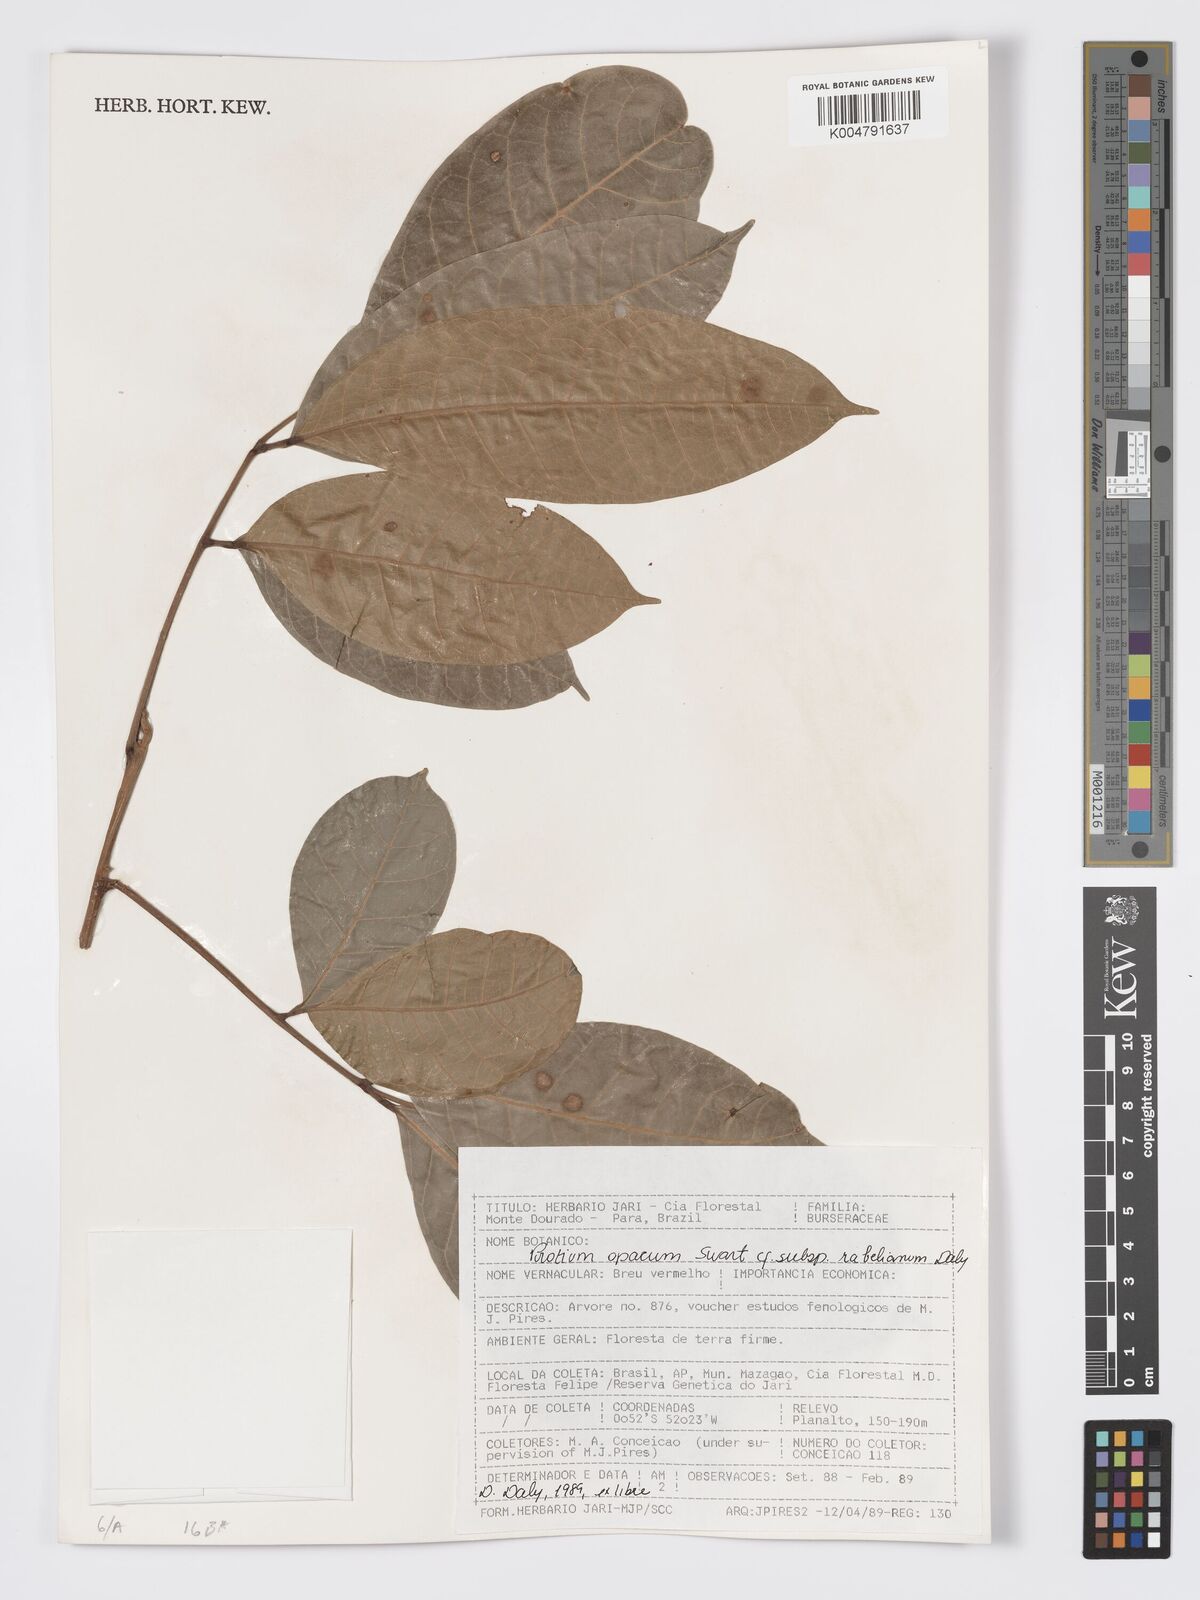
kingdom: Plantae
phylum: Tracheophyta
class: Magnoliopsida
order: Sapindales
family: Burseraceae
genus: Protium
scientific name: Protium opacum
